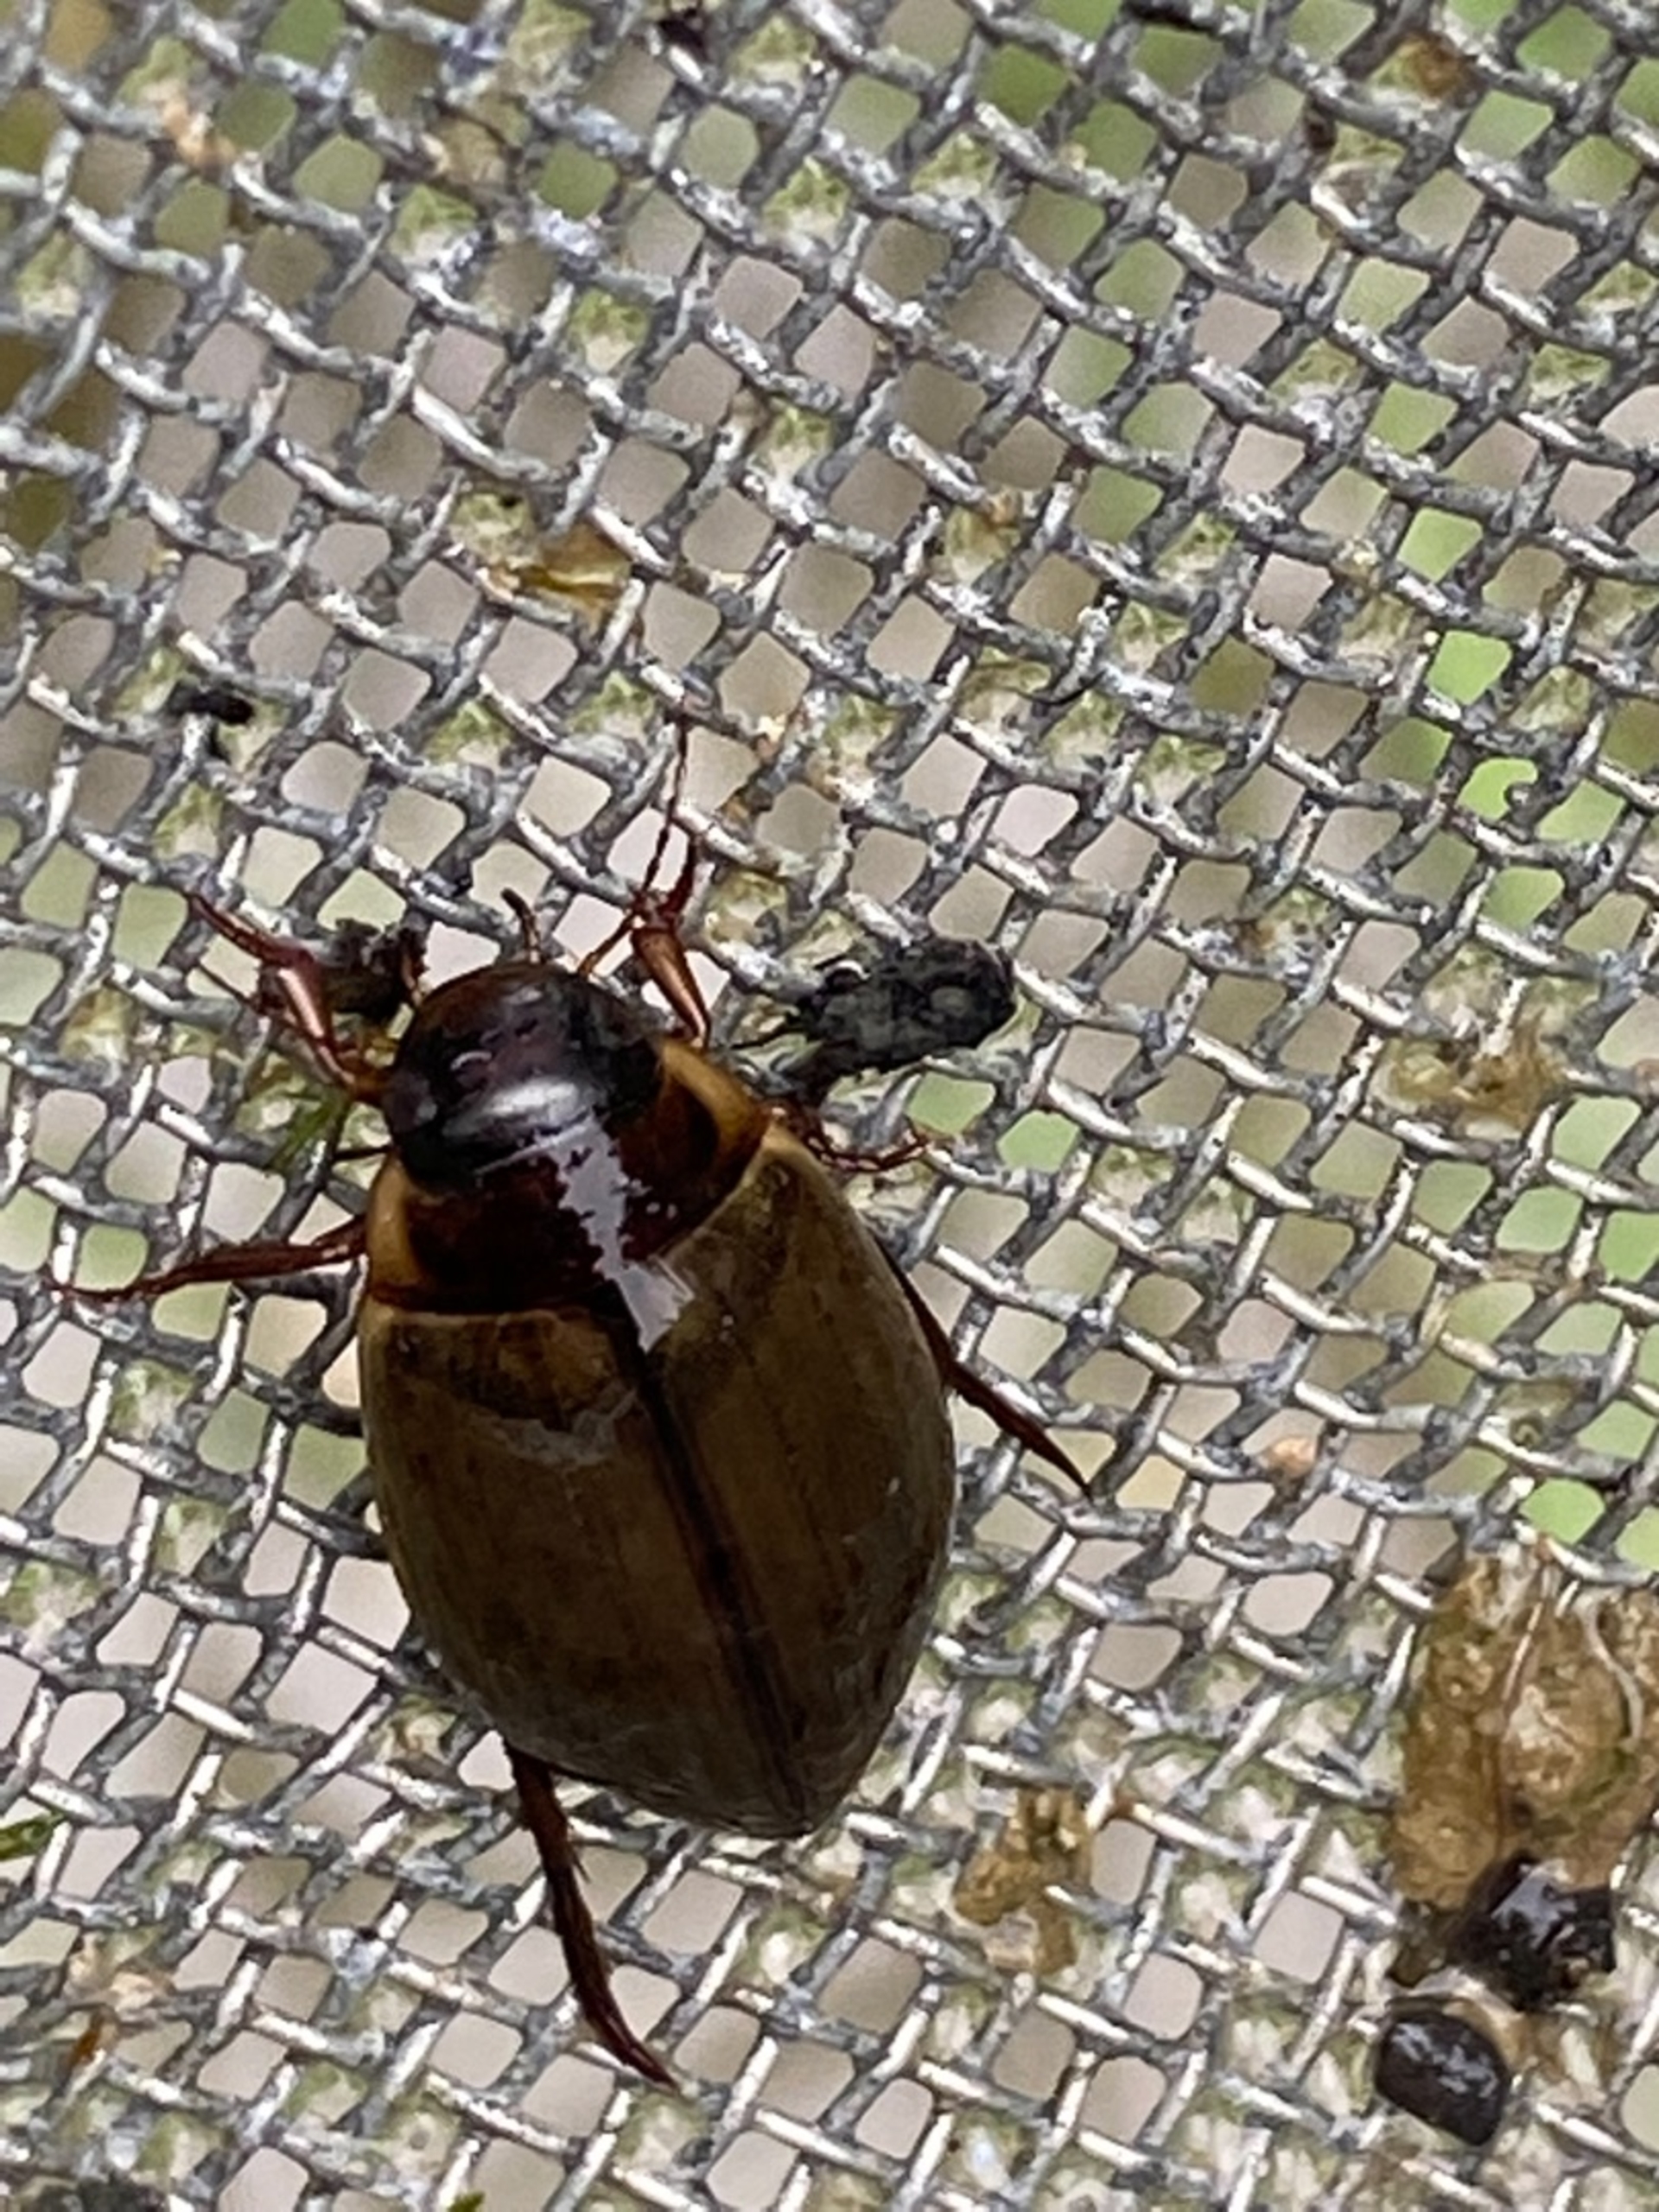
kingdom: Animalia
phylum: Arthropoda
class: Insecta
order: Coleoptera
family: Dytiscidae
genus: Colymbetes
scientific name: Colymbetes fuscus
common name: Tværridset vandkalv
